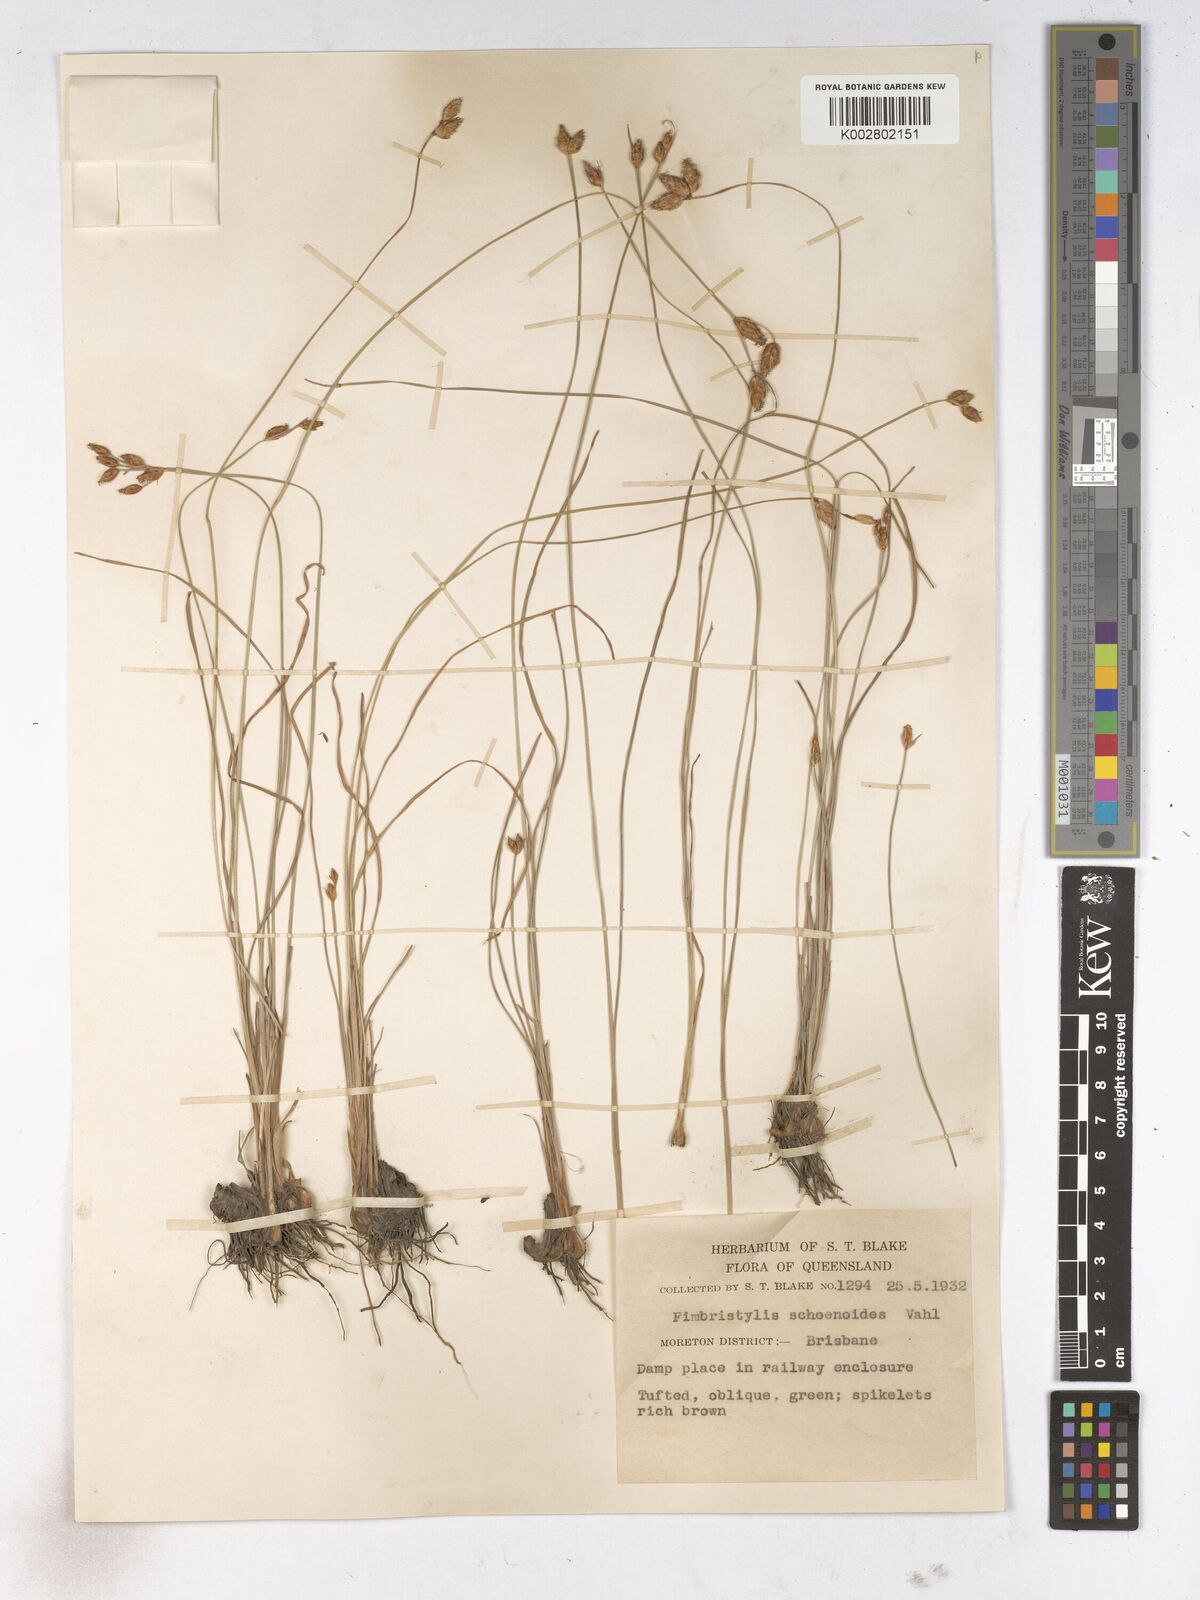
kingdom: Plantae
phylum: Tracheophyta
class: Liliopsida
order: Poales
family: Cyperaceae
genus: Fimbristylis
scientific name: Fimbristylis schoenoides
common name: Ditch fimbry
